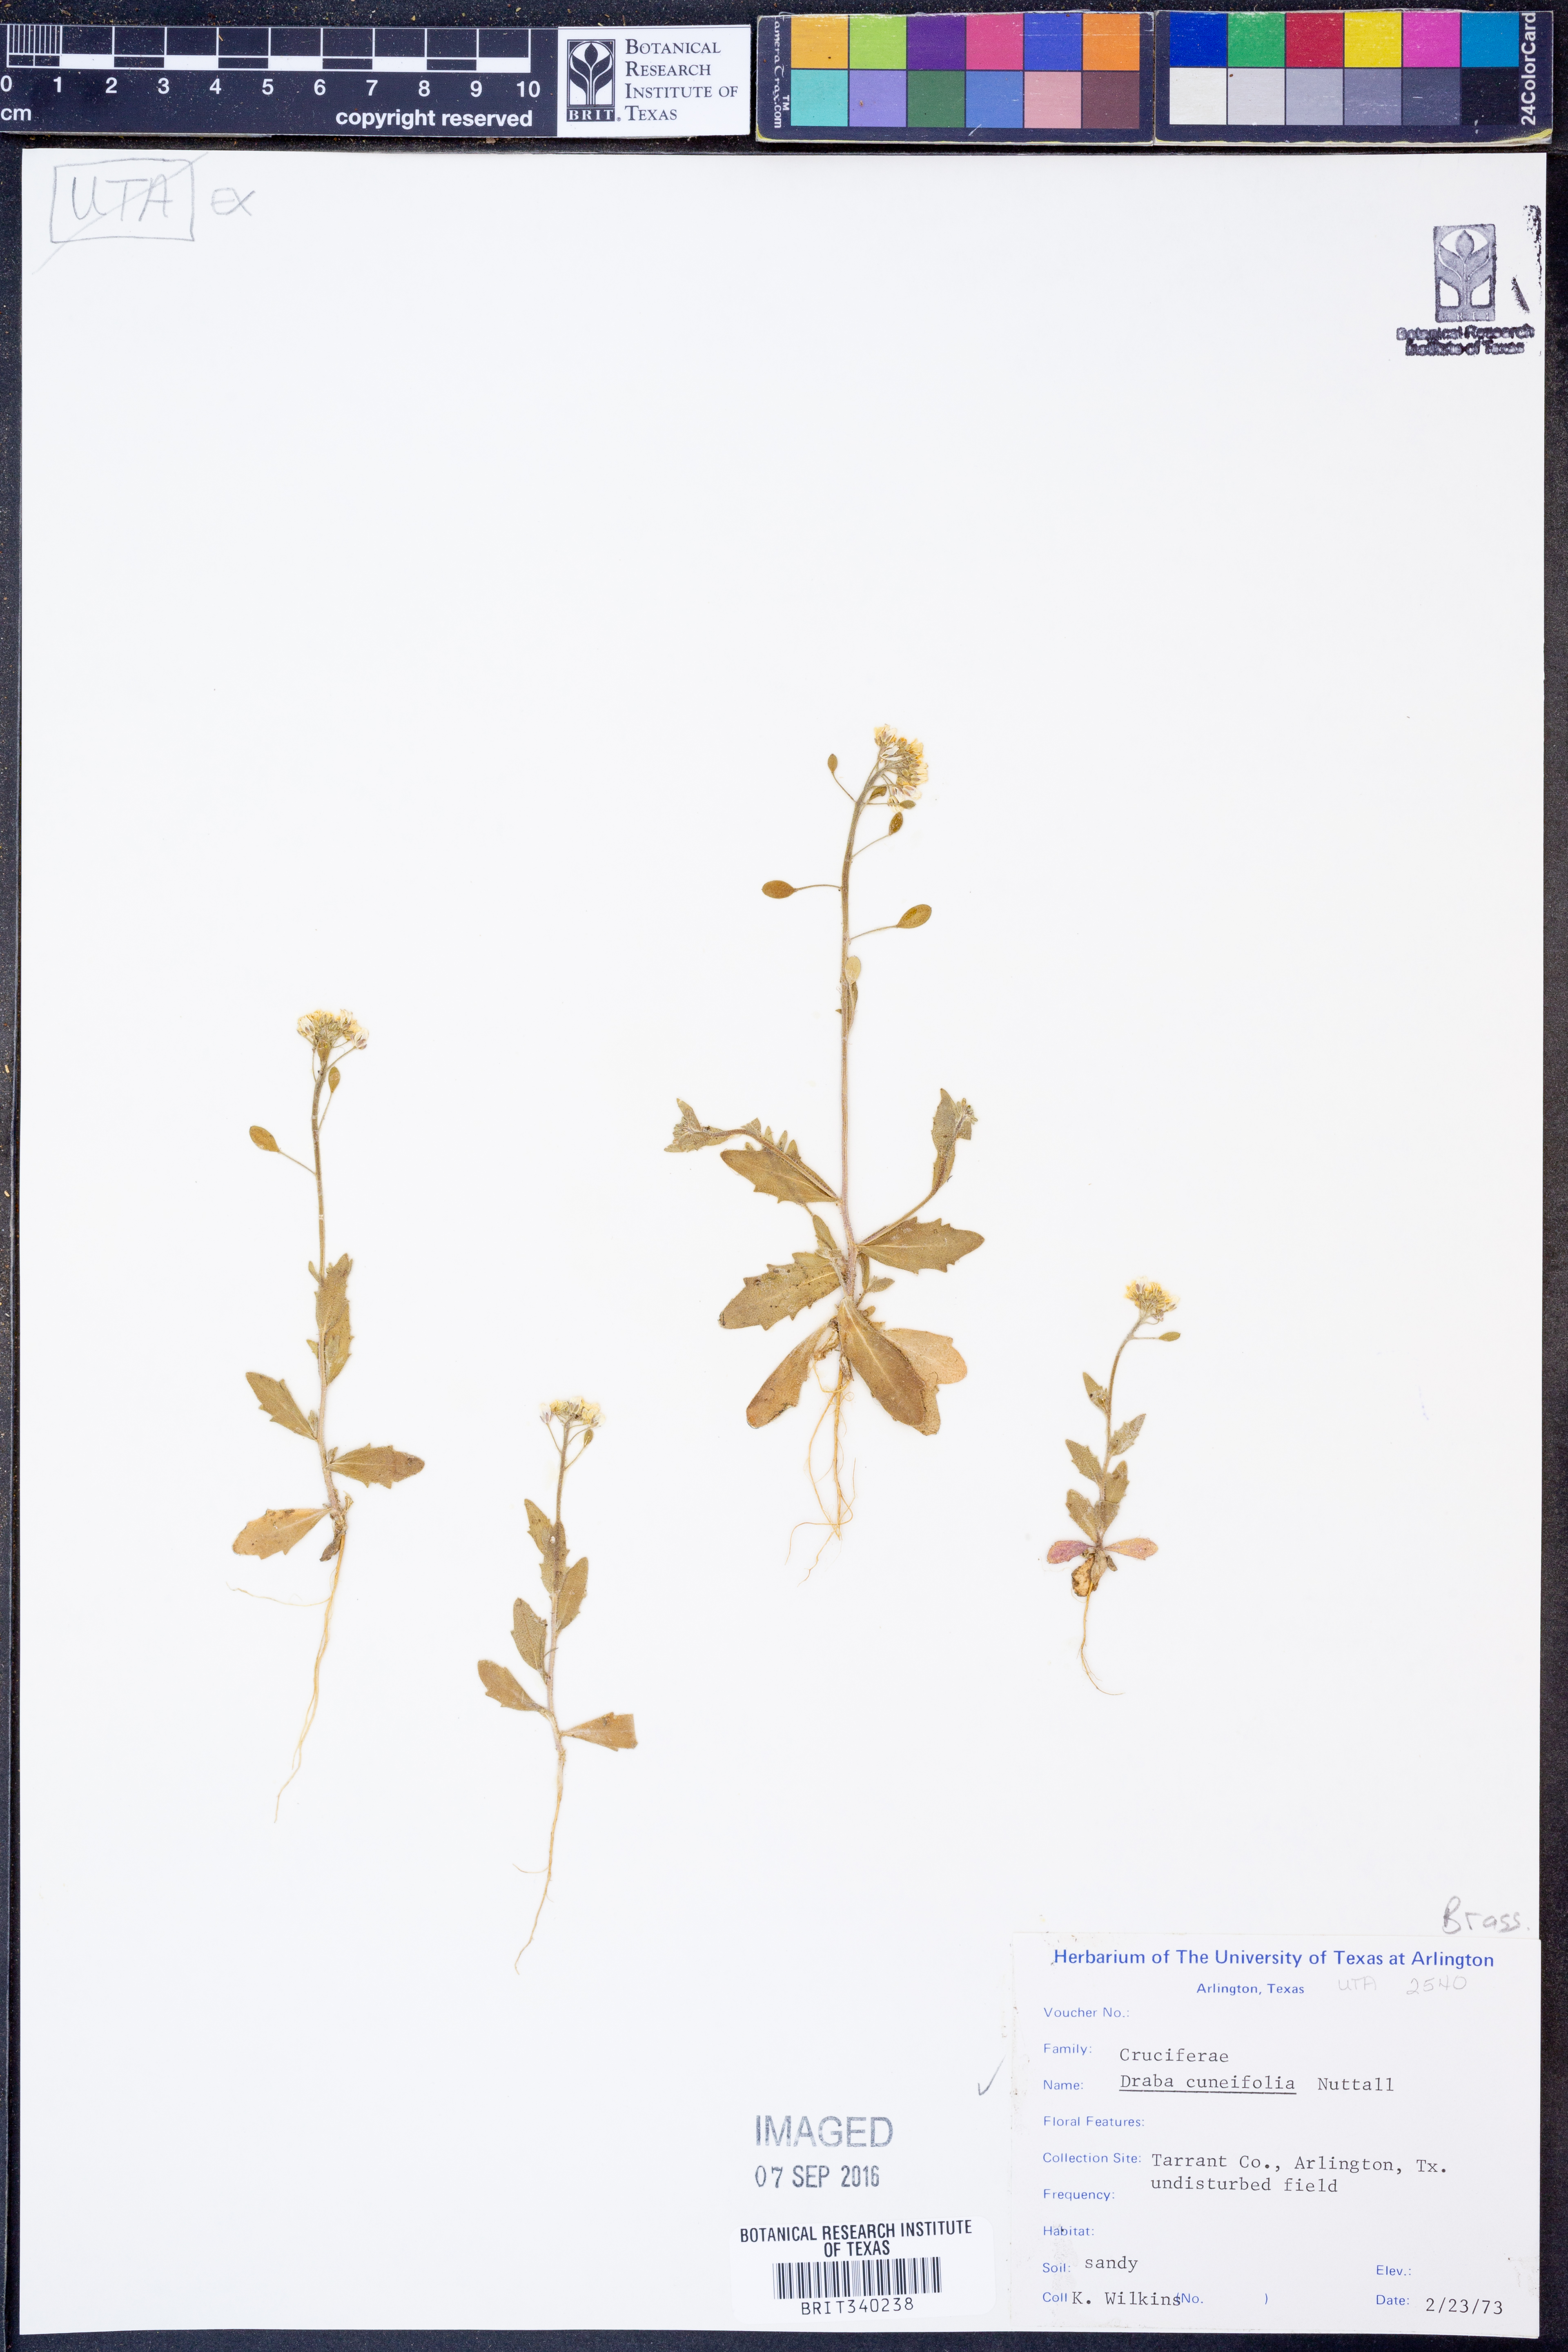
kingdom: Plantae
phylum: Tracheophyta
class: Magnoliopsida
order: Brassicales
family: Brassicaceae
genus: Tomostima
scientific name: Tomostima cuneifolia
